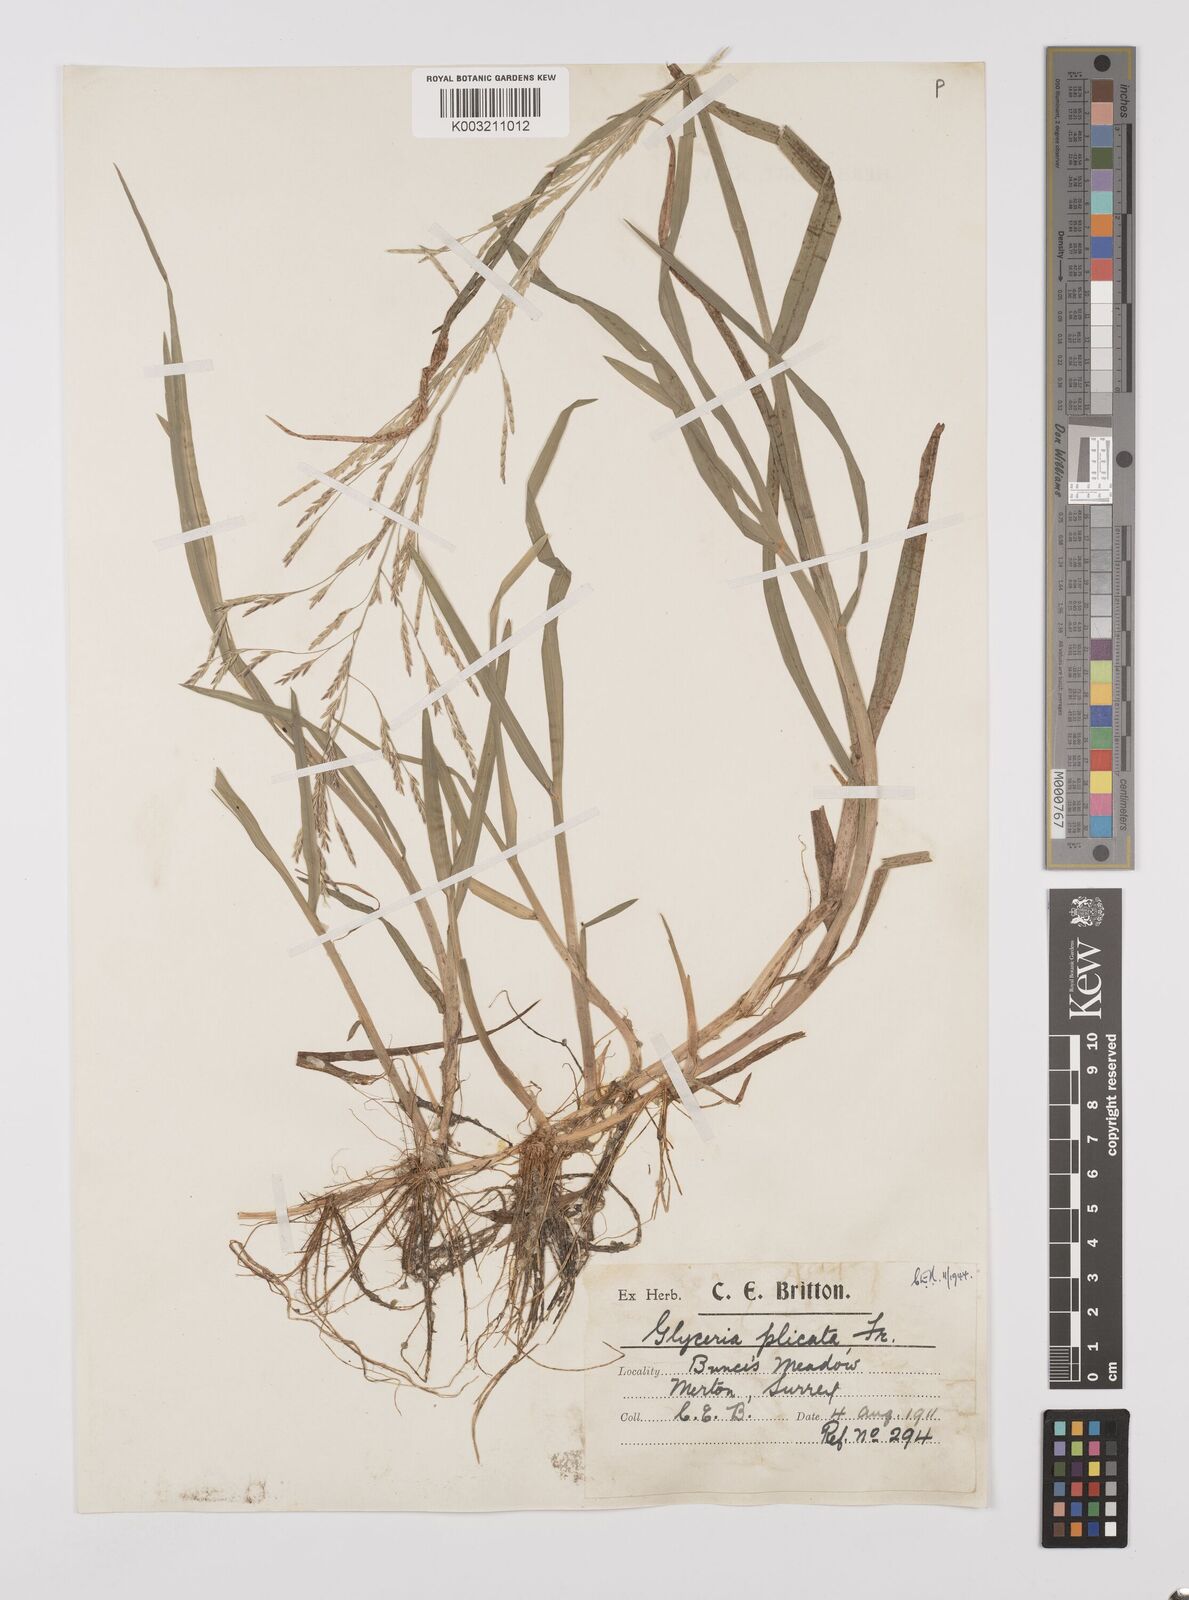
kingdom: Plantae
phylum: Tracheophyta
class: Liliopsida
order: Poales
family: Poaceae
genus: Glyceria
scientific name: Glyceria notata
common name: Plicate sweet-grass
